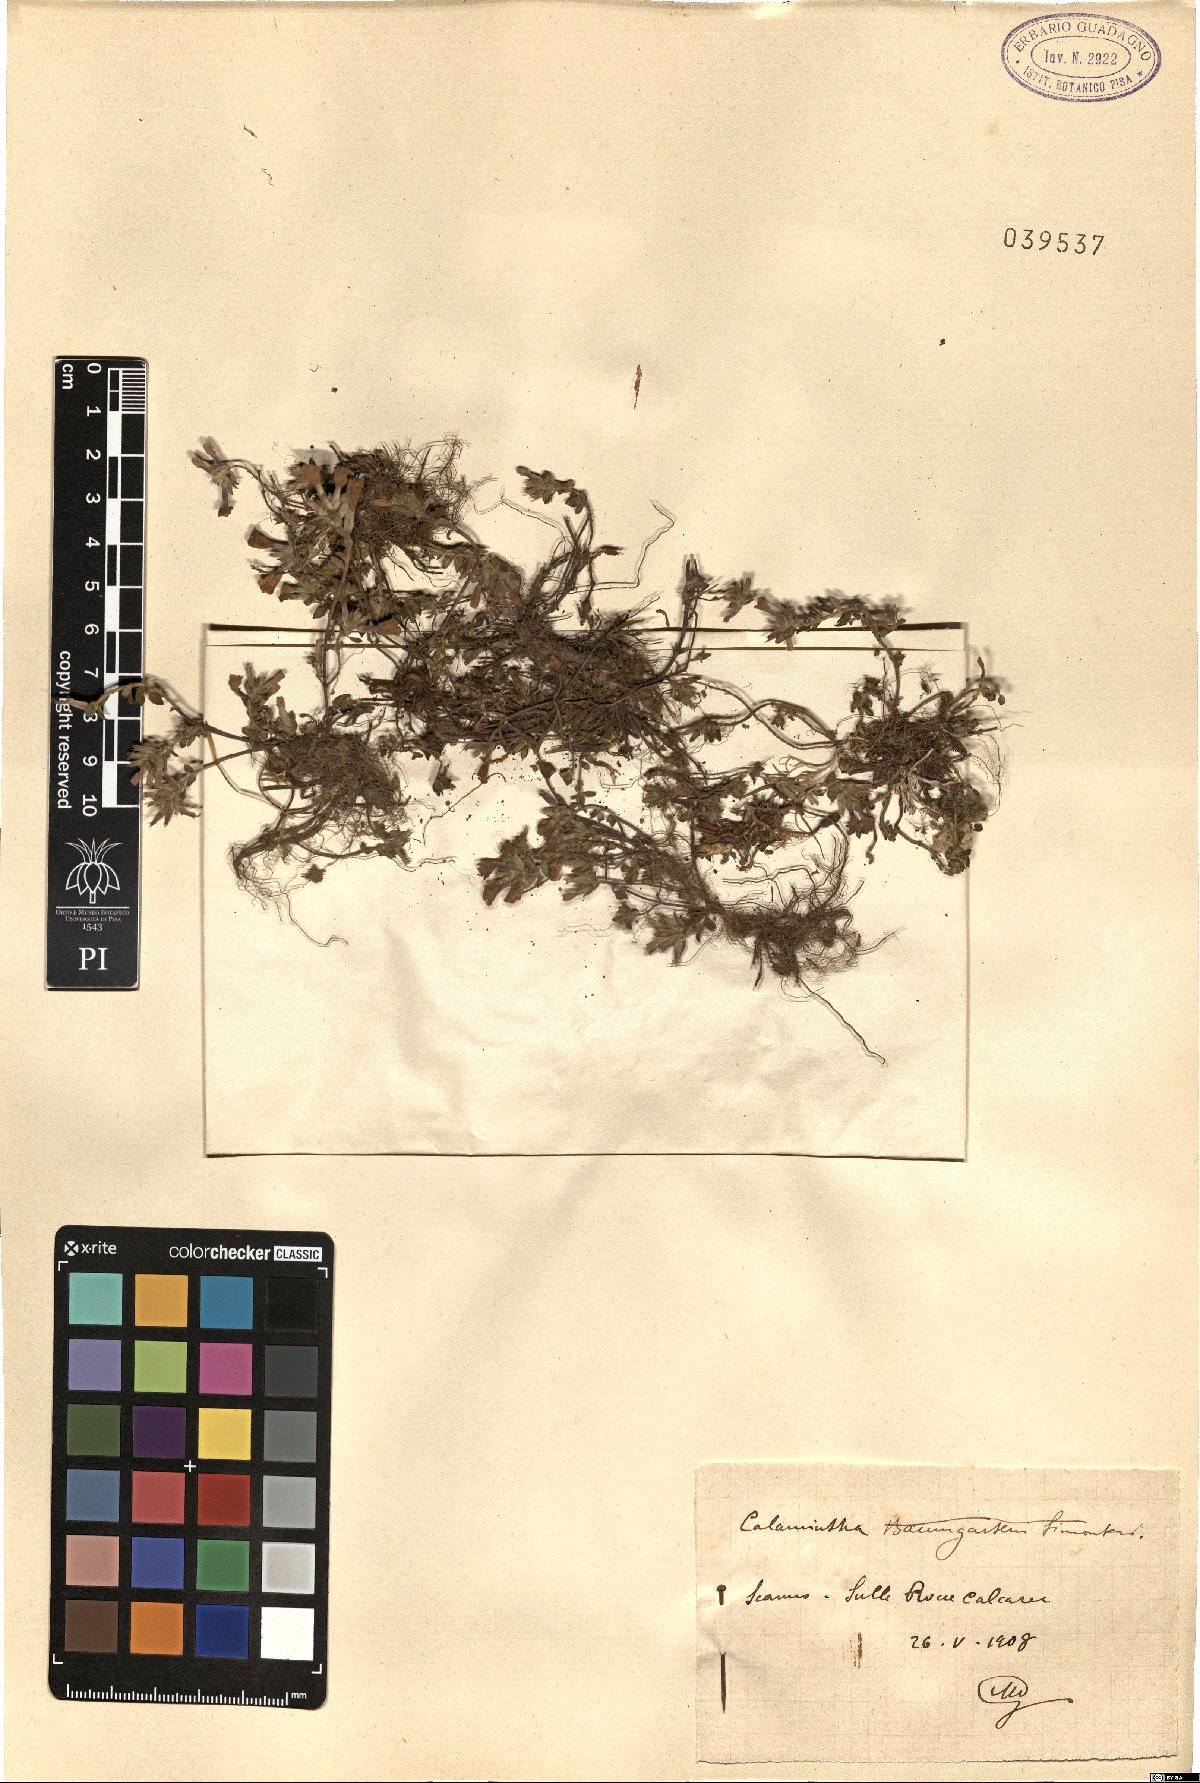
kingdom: Plantae
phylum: Tracheophyta
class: Magnoliopsida
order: Lamiales
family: Lamiaceae
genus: Calamintha
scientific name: Calamintha
